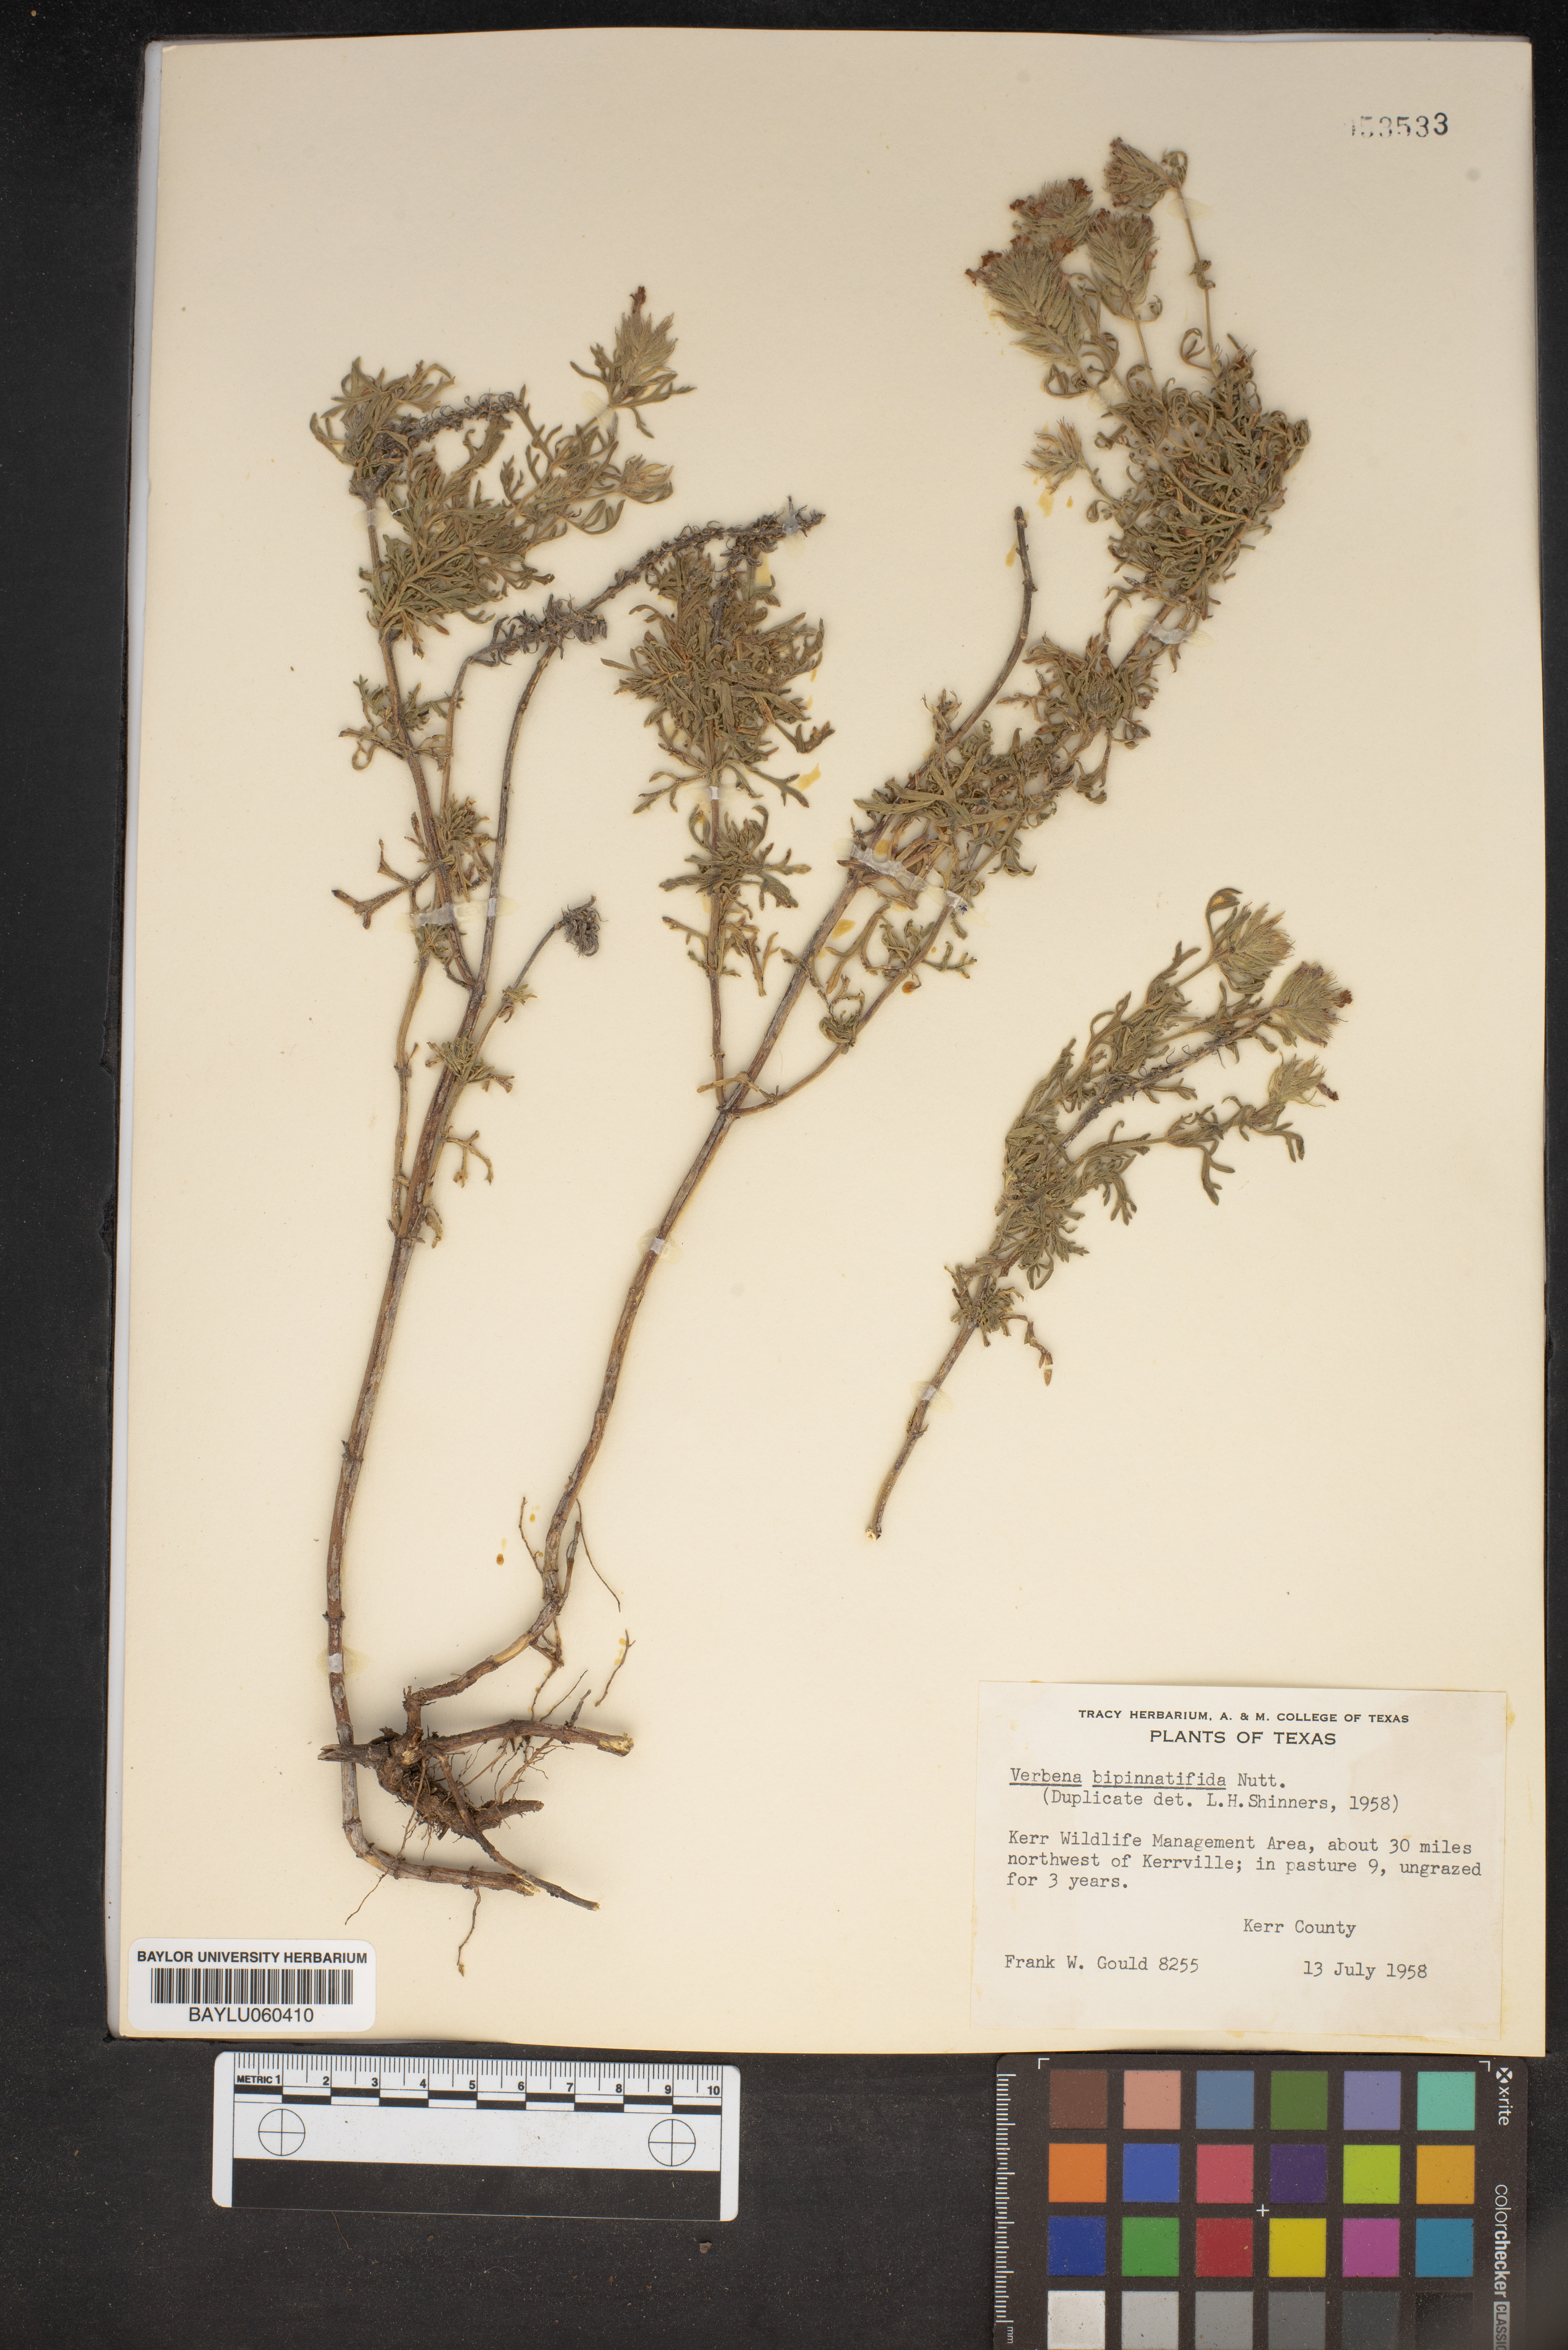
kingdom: Plantae
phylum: Tracheophyta
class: Magnoliopsida
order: Lamiales
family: Verbenaceae
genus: Verbena
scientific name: Verbena bipinnatifida
